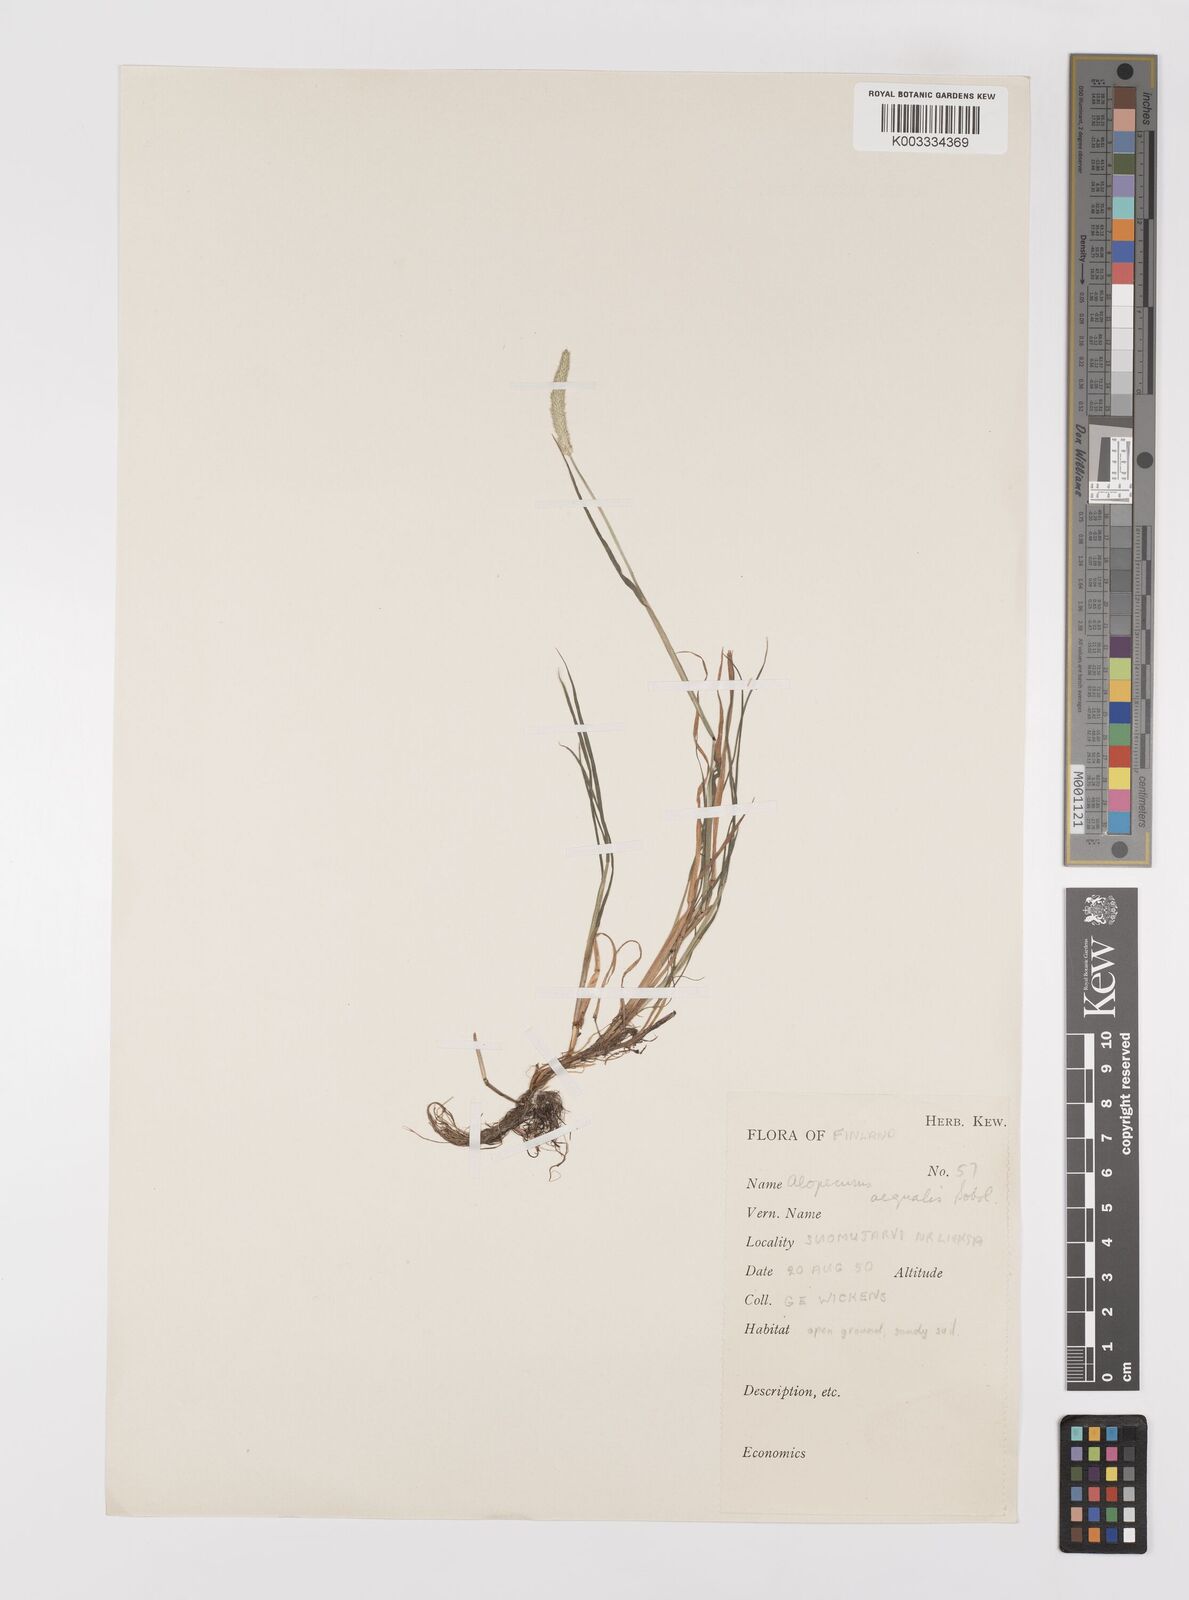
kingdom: Plantae
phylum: Tracheophyta
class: Liliopsida
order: Poales
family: Poaceae
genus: Alopecurus
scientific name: Alopecurus aequalis
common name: Orange foxtail
